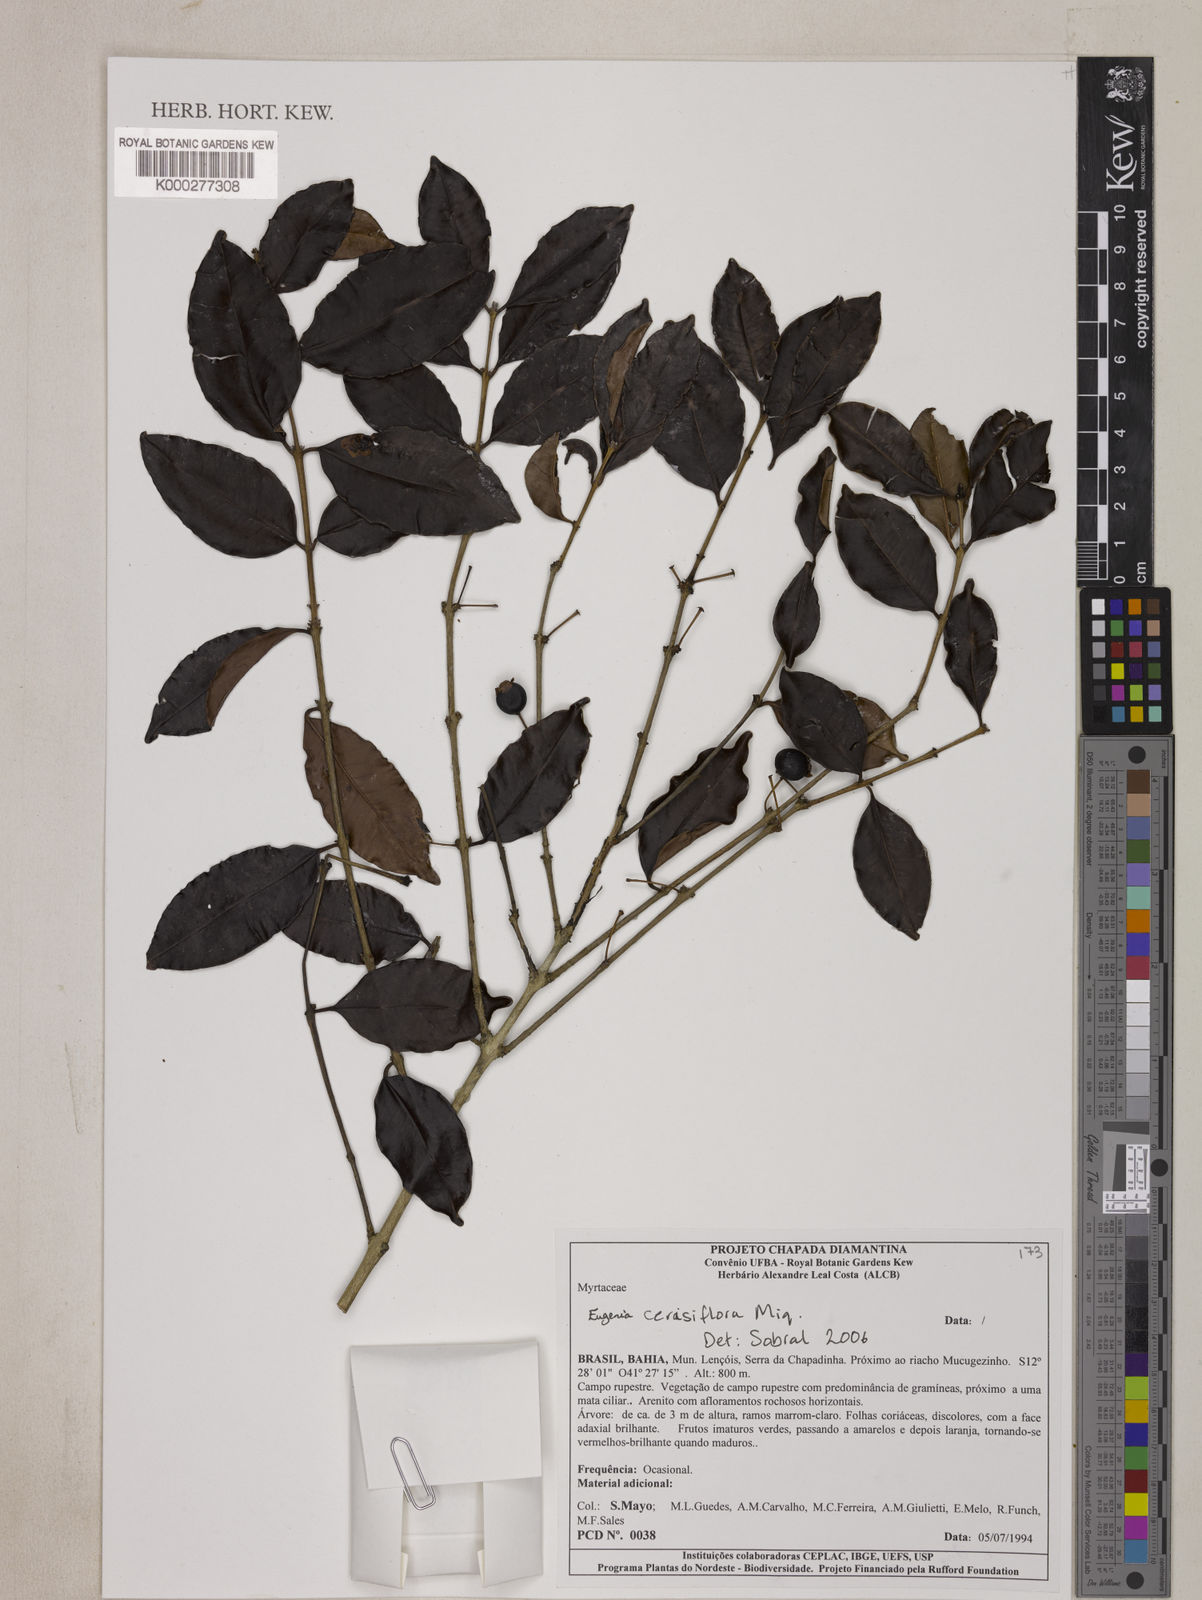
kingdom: Plantae
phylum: Tracheophyta
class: Magnoliopsida
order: Myrtales
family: Myrtaceae
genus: Eugenia
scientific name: Eugenia cerasiflora
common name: Cherry-of-the-rio-grande
